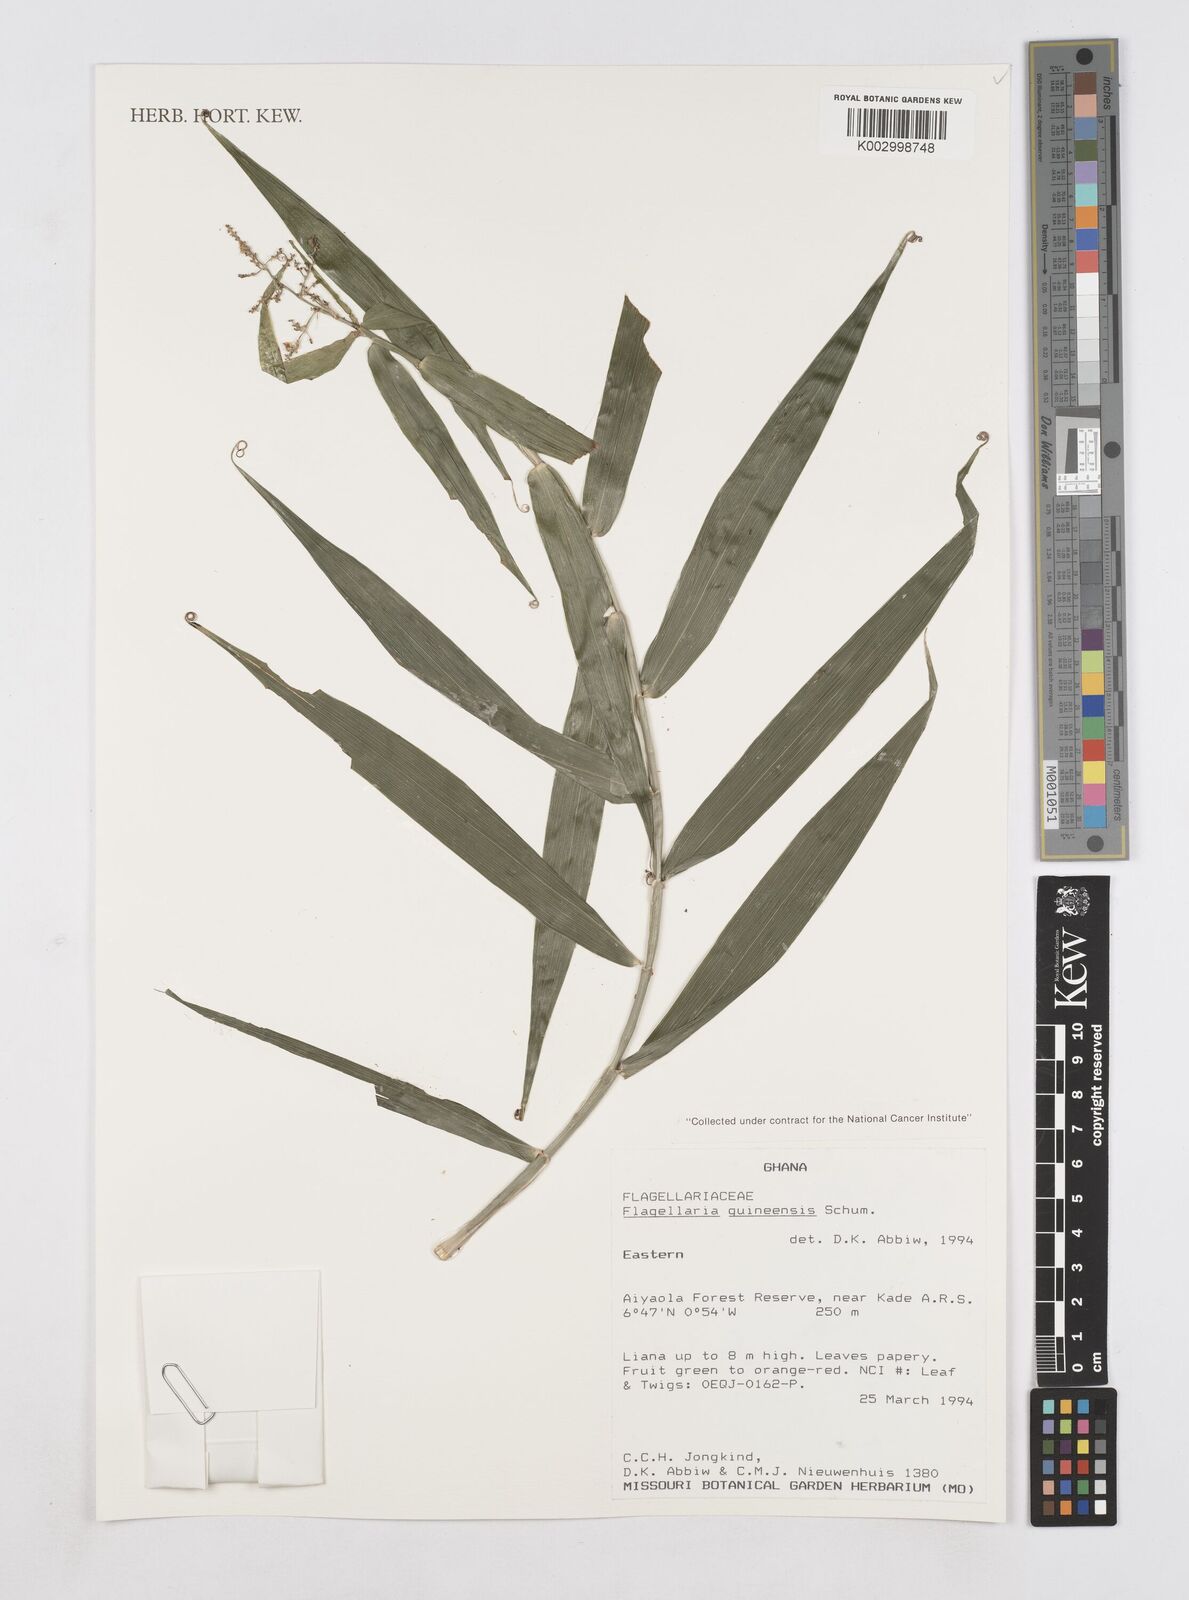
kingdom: Plantae
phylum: Tracheophyta
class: Liliopsida
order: Poales
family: Flagellariaceae
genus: Flagellaria
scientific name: Flagellaria guineensis
